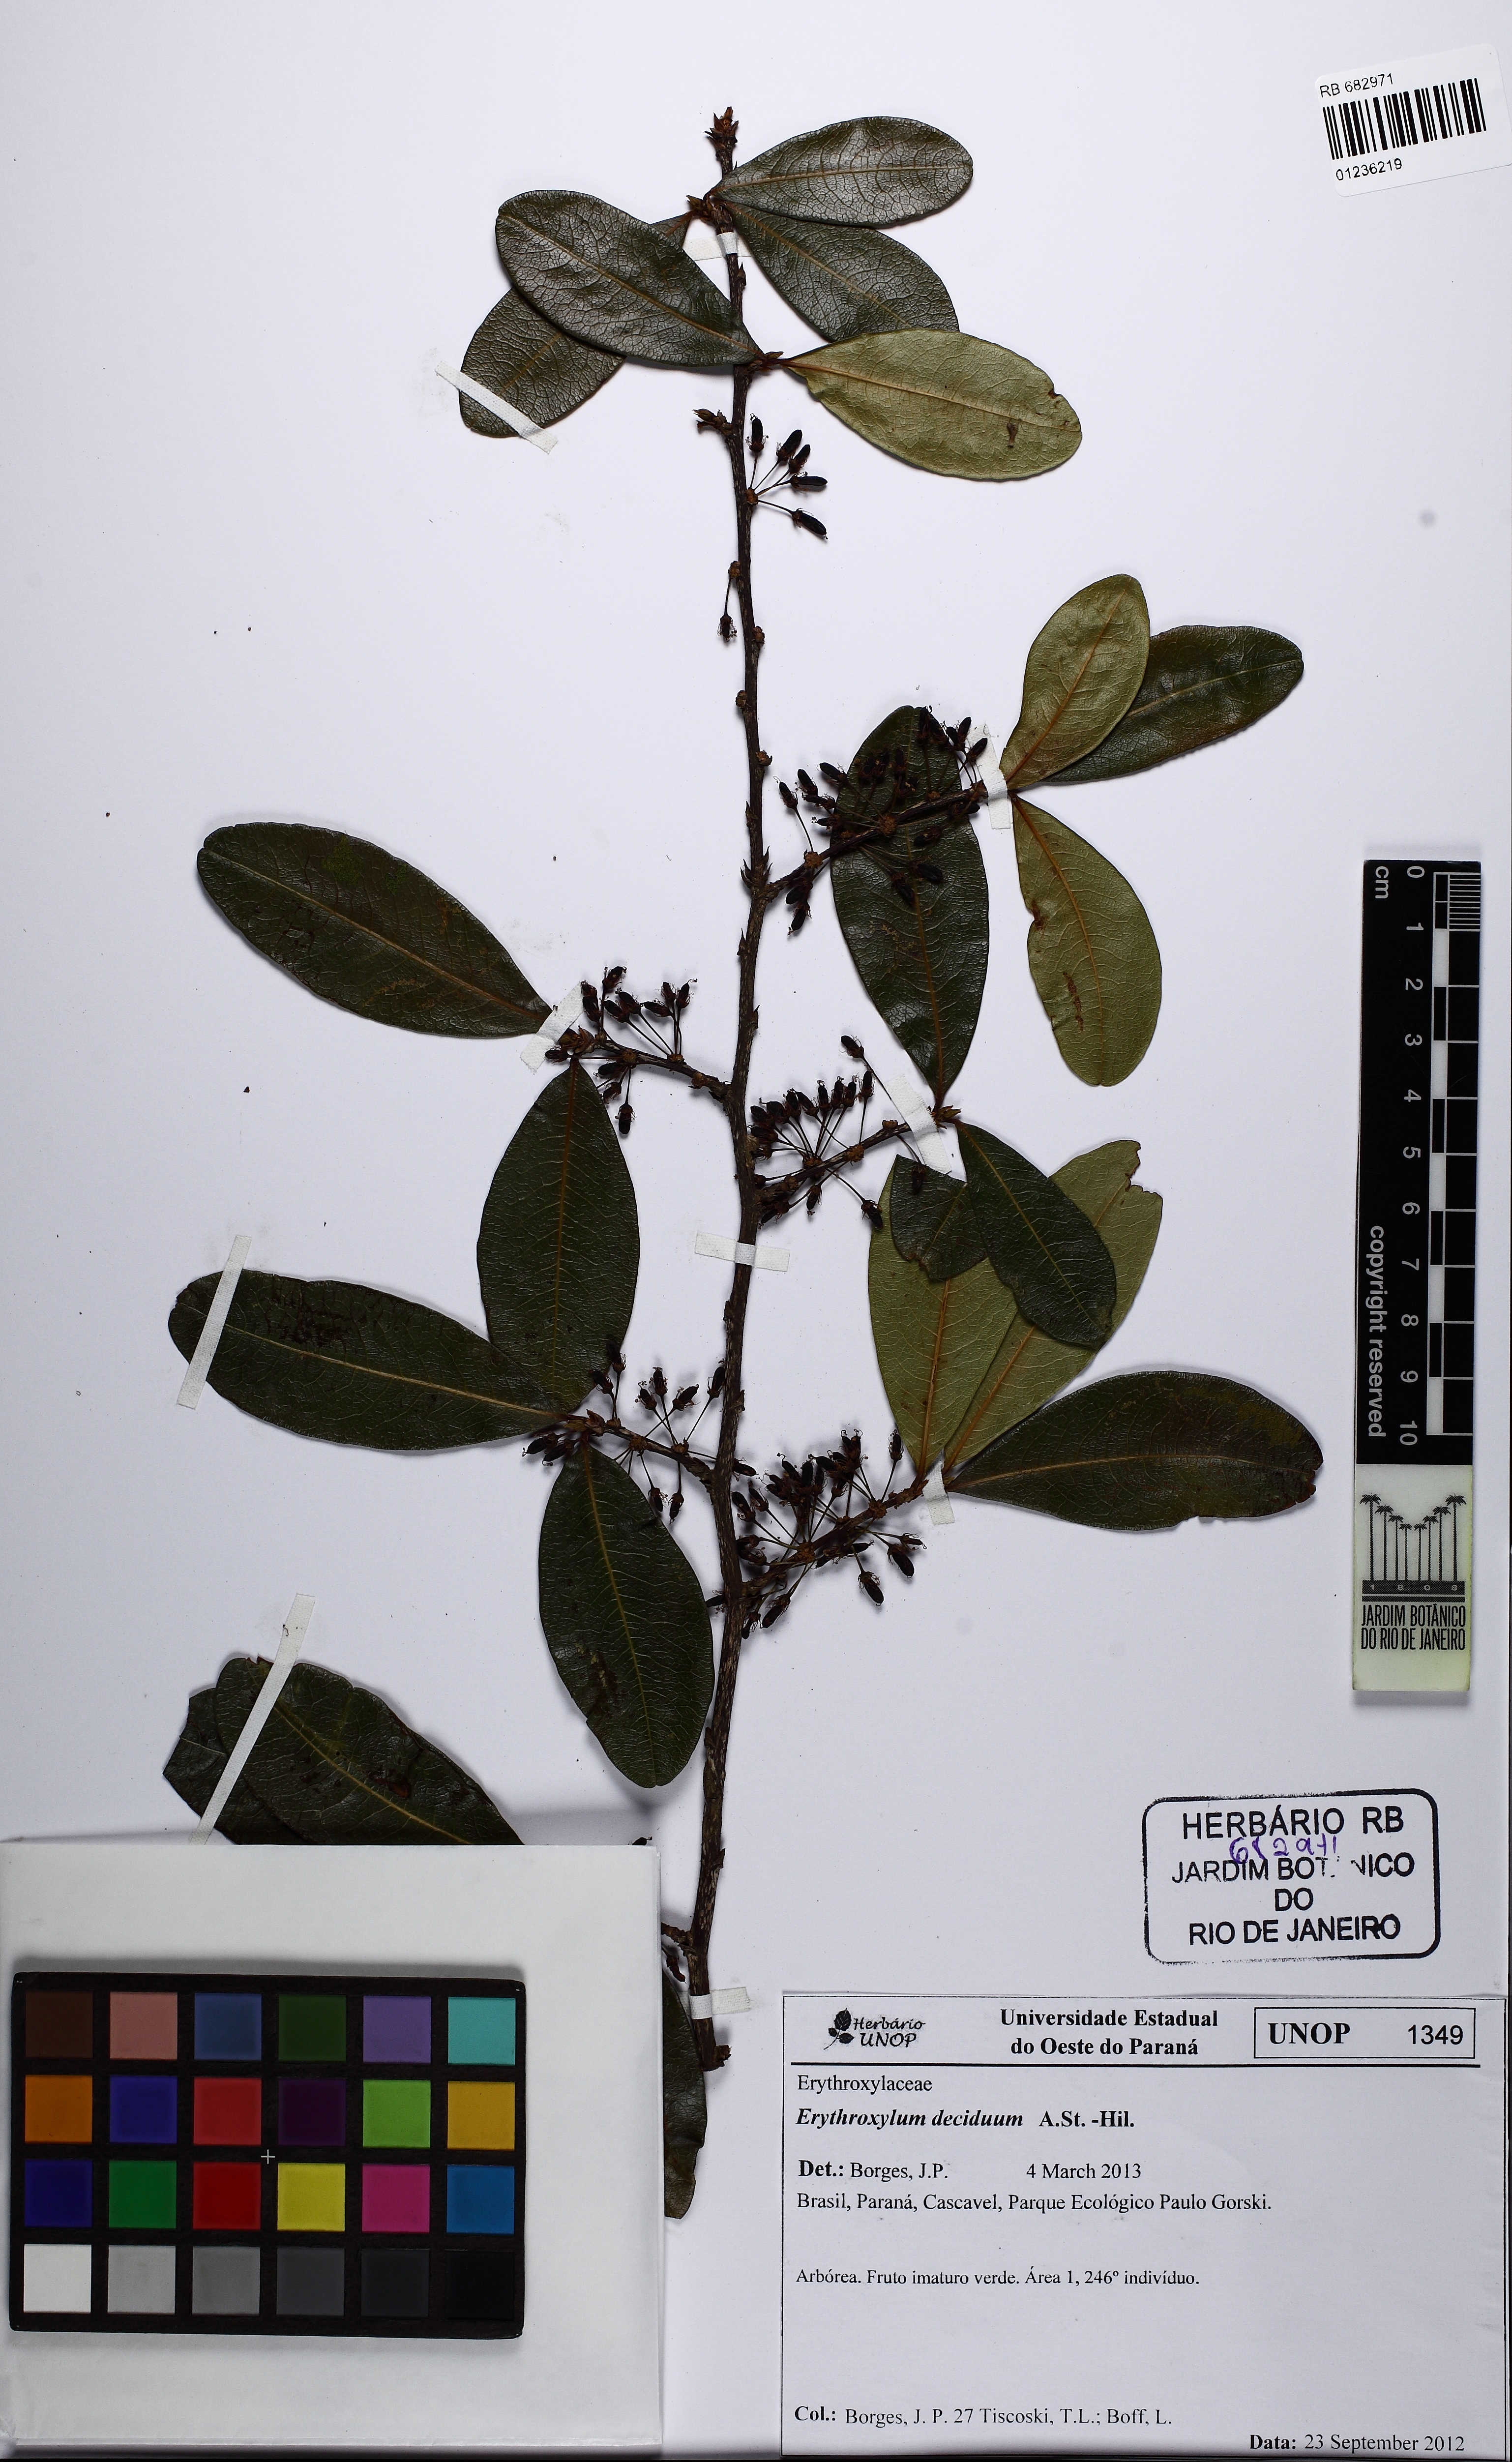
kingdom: Plantae
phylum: Tracheophyta
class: Magnoliopsida
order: Malpighiales
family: Erythroxylaceae
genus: Erythroxylum
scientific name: Erythroxylum deciduum
